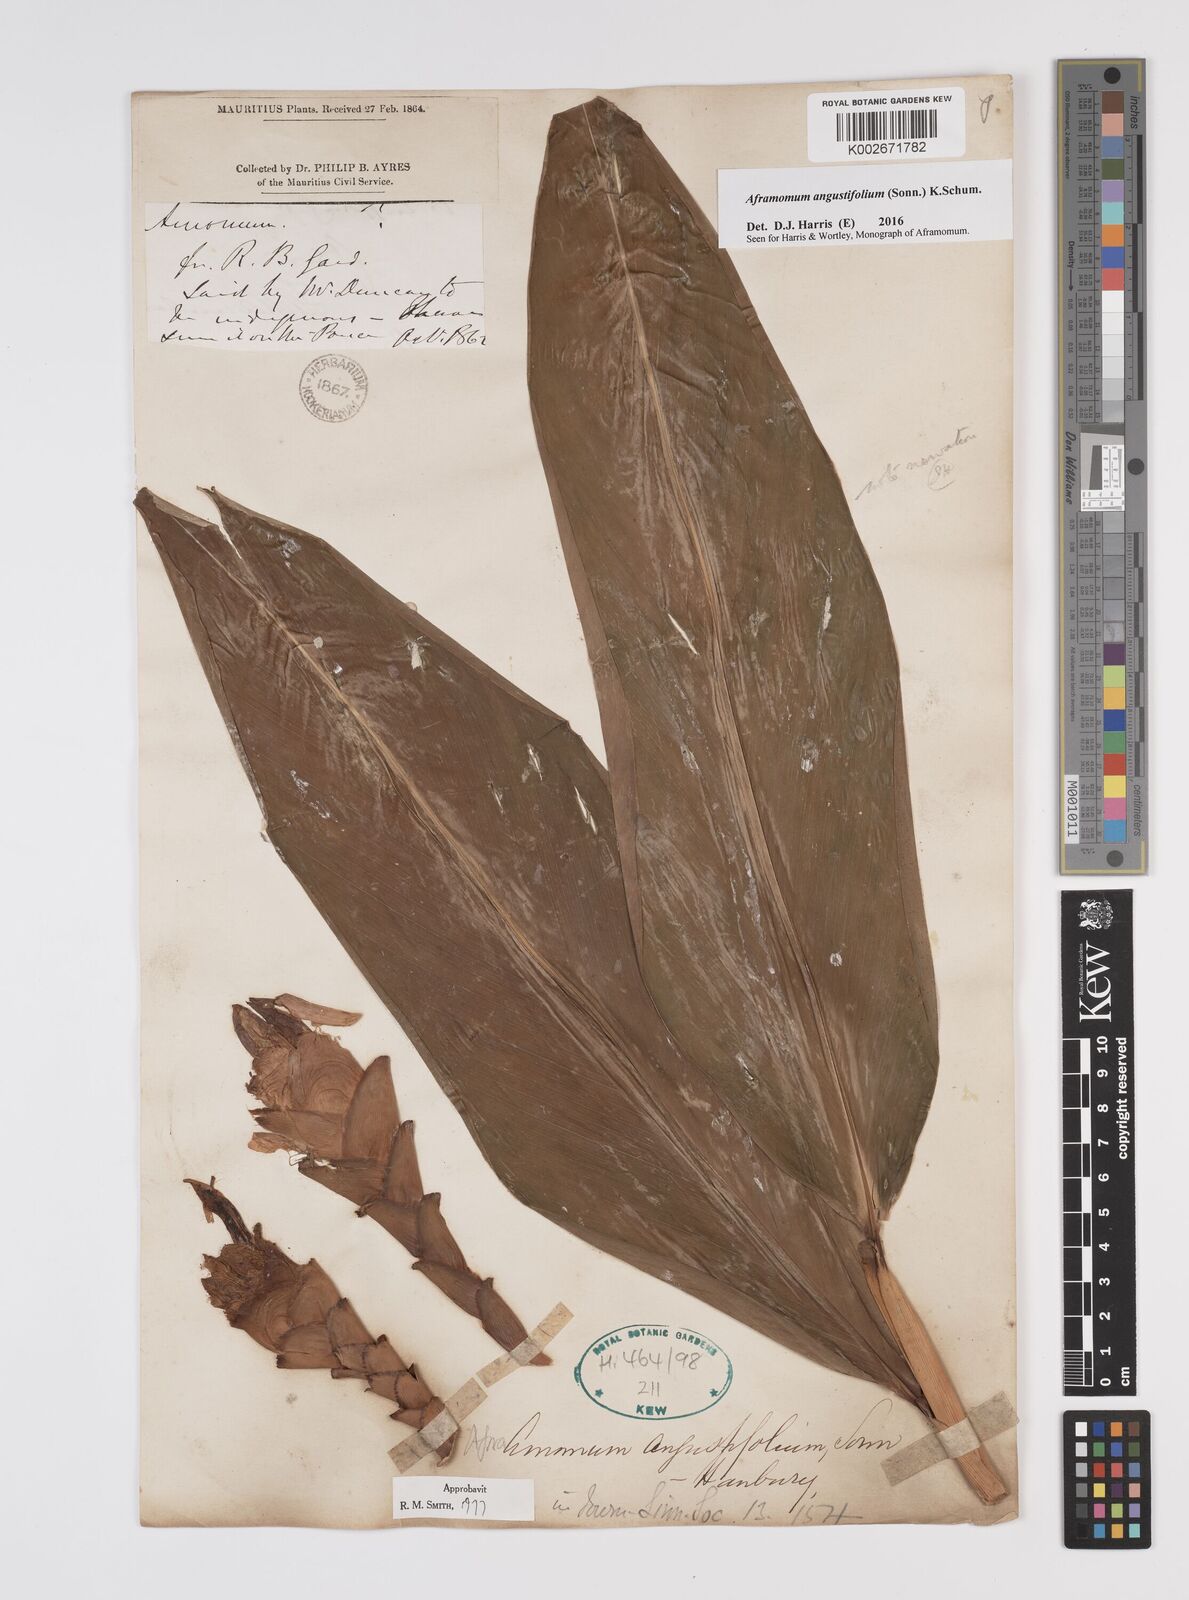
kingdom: Plantae
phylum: Tracheophyta
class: Liliopsida
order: Zingiberales
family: Zingiberaceae
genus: Aframomum
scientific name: Aframomum angustifolium
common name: Guinea grains
